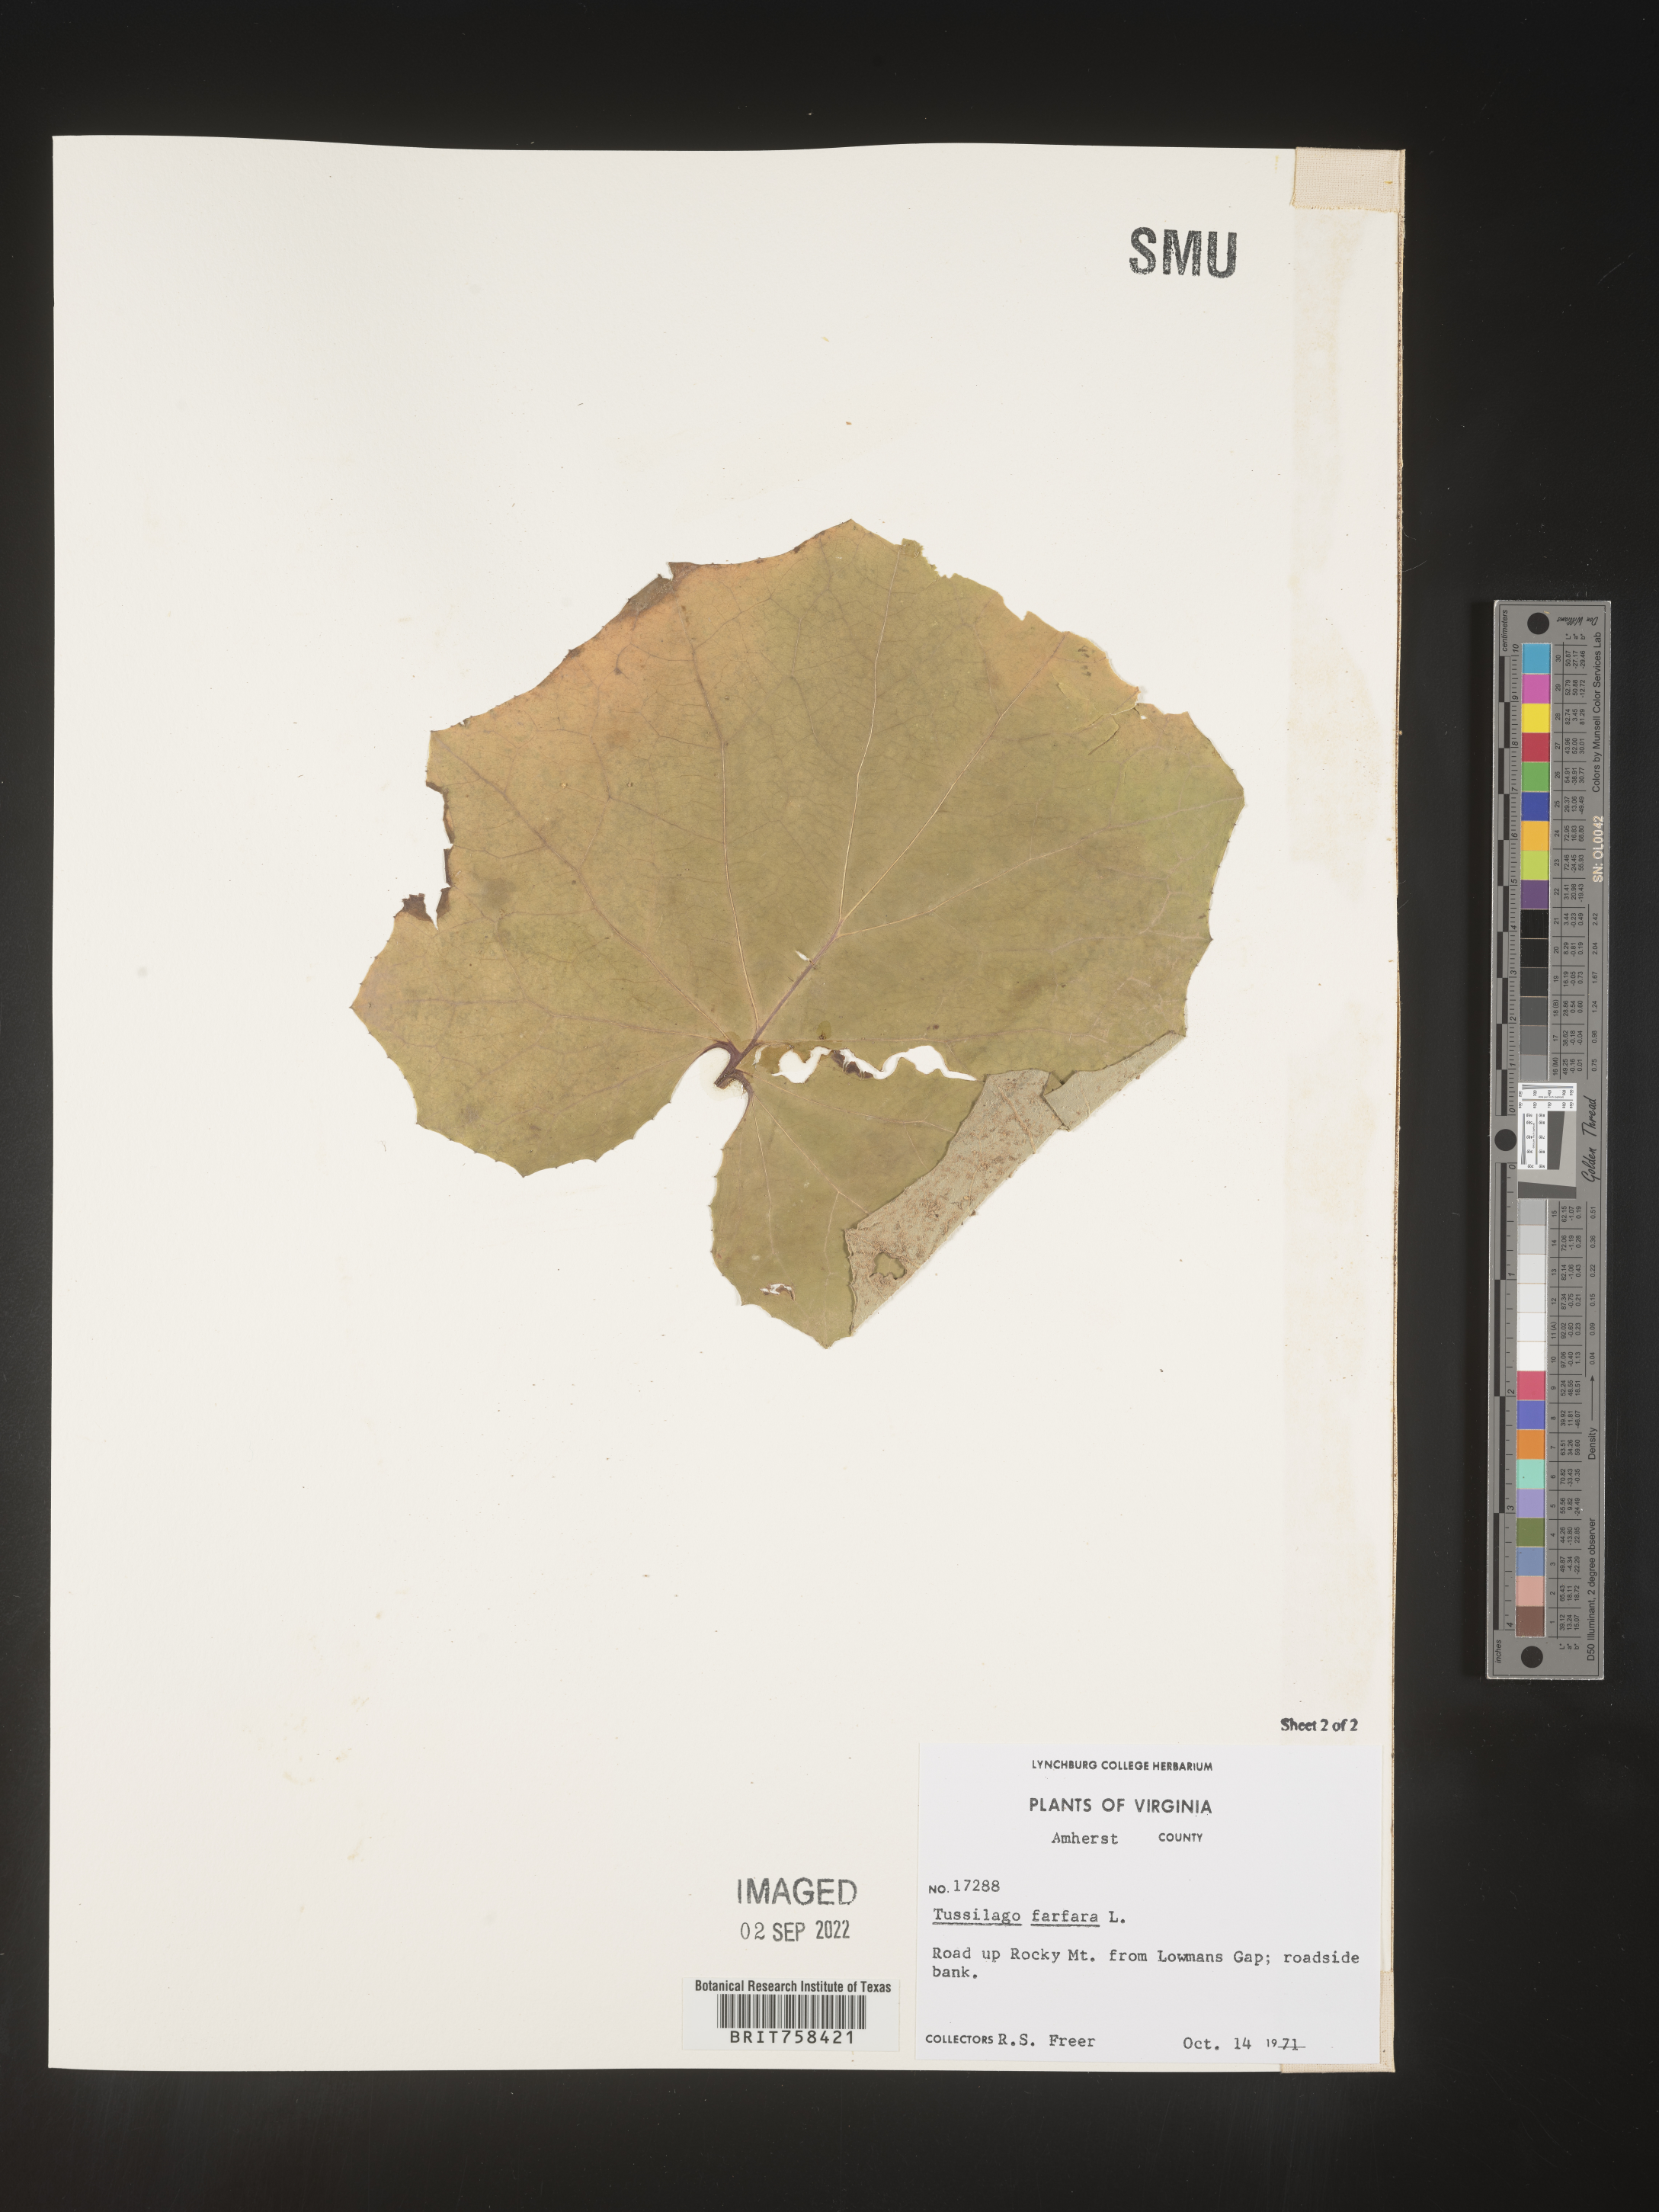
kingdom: Plantae
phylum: Tracheophyta
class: Magnoliopsida
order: Asterales
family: Asteraceae
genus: Tussilago
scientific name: Tussilago
